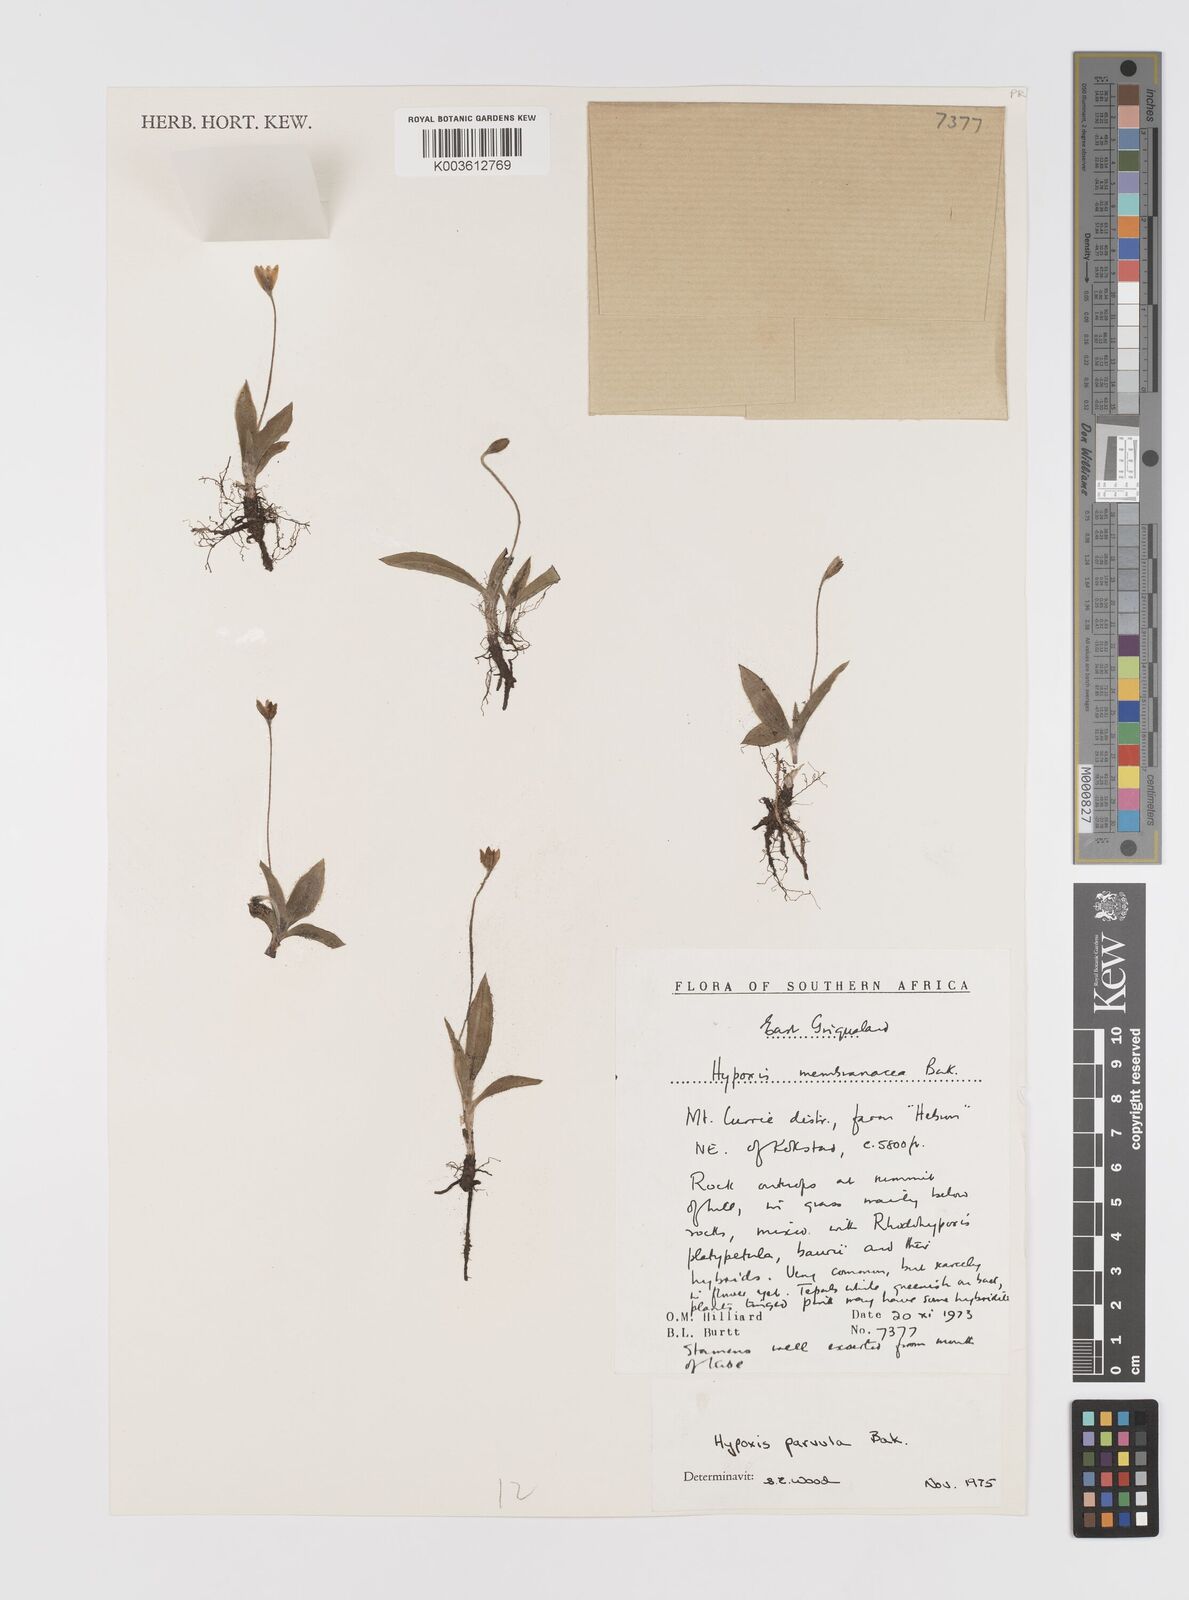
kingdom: Plantae
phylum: Tracheophyta
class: Liliopsida
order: Asparagales
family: Hypoxidaceae
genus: Hypoxis
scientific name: Hypoxis parvula
